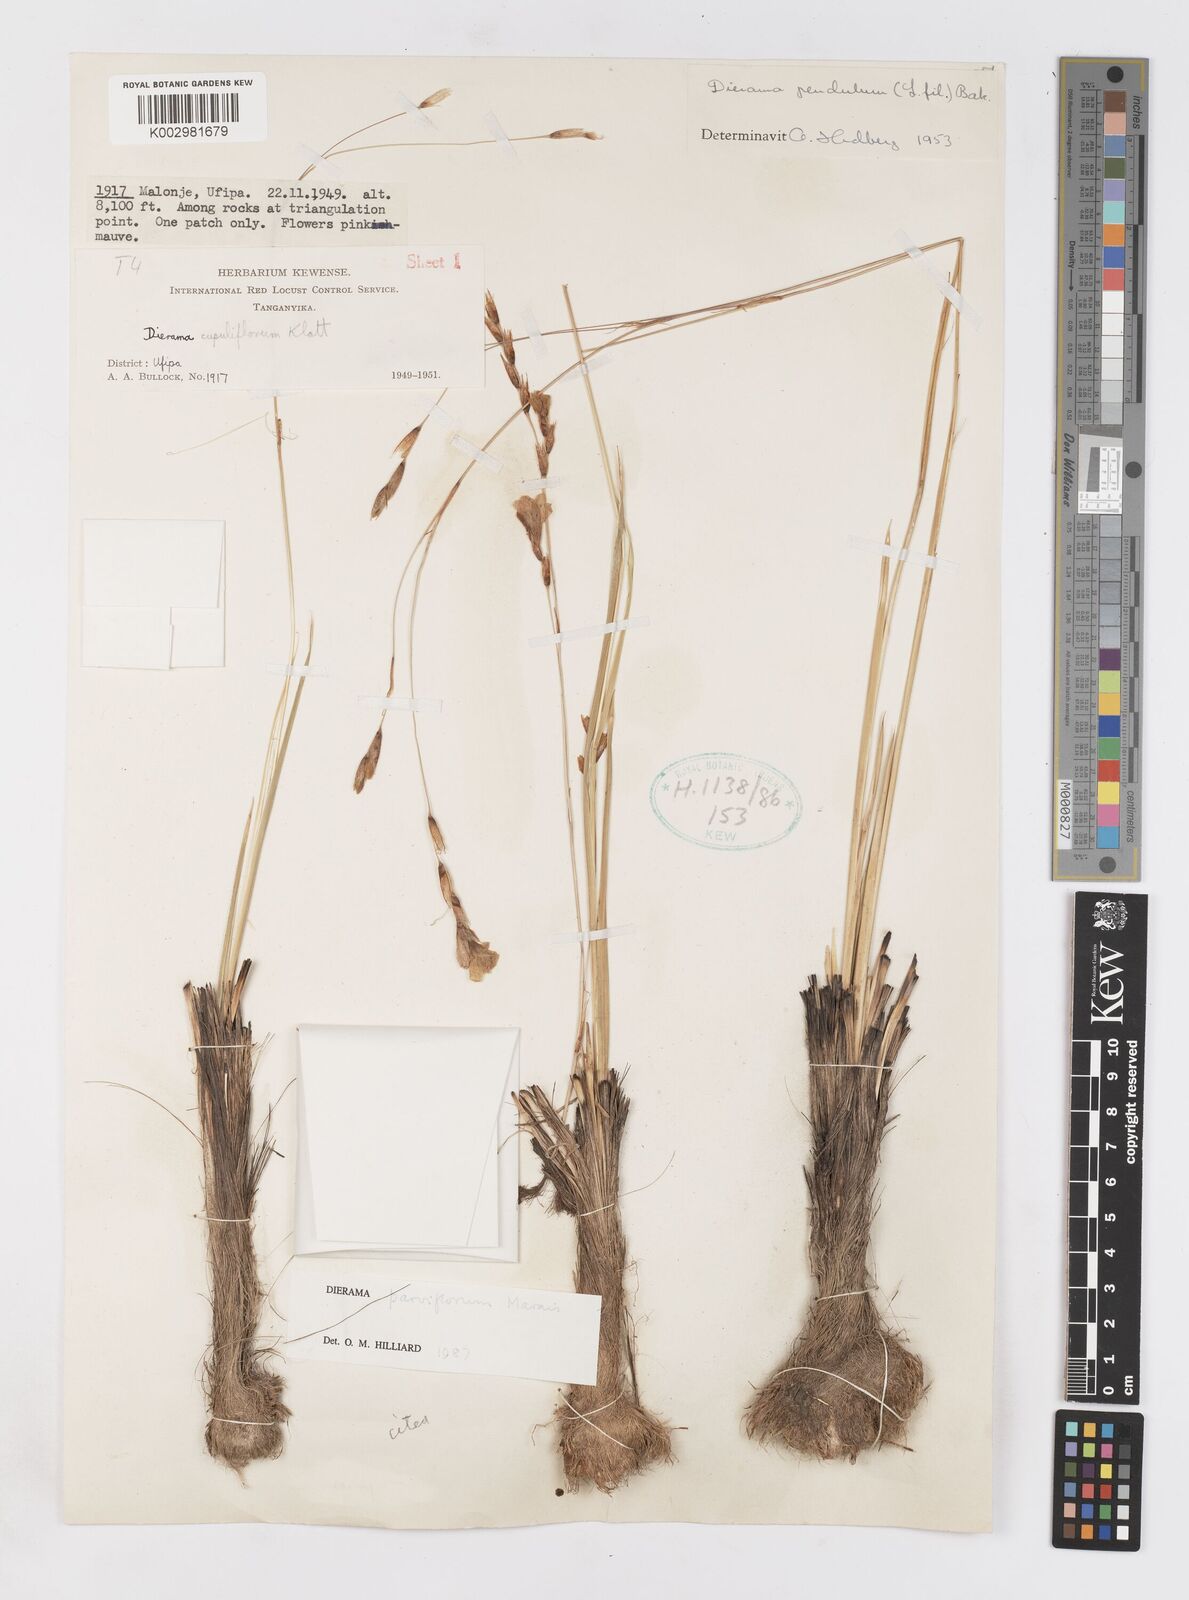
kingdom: Plantae
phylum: Tracheophyta
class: Liliopsida
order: Asparagales
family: Iridaceae
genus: Dierama
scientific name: Dierama parviflorum
